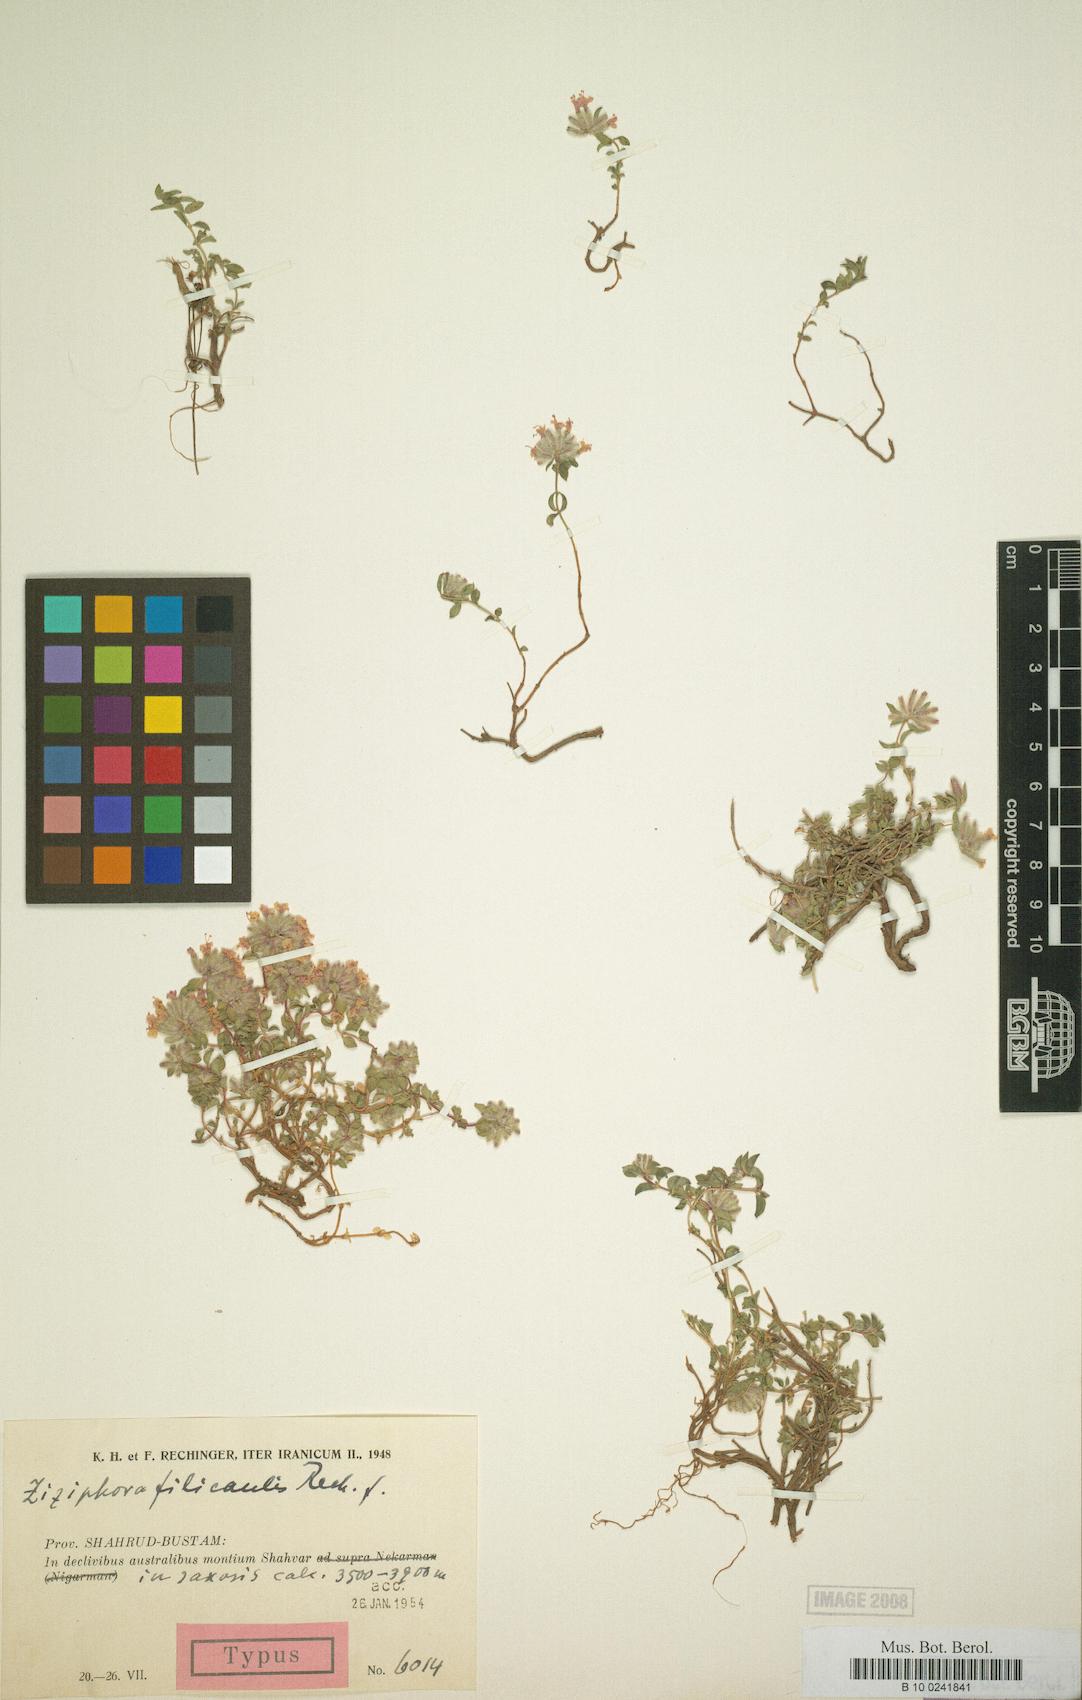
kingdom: Plantae
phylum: Tracheophyta
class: Magnoliopsida
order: Lamiales
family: Lamiaceae
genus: Ziziphora
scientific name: Ziziphora clinopodioides
